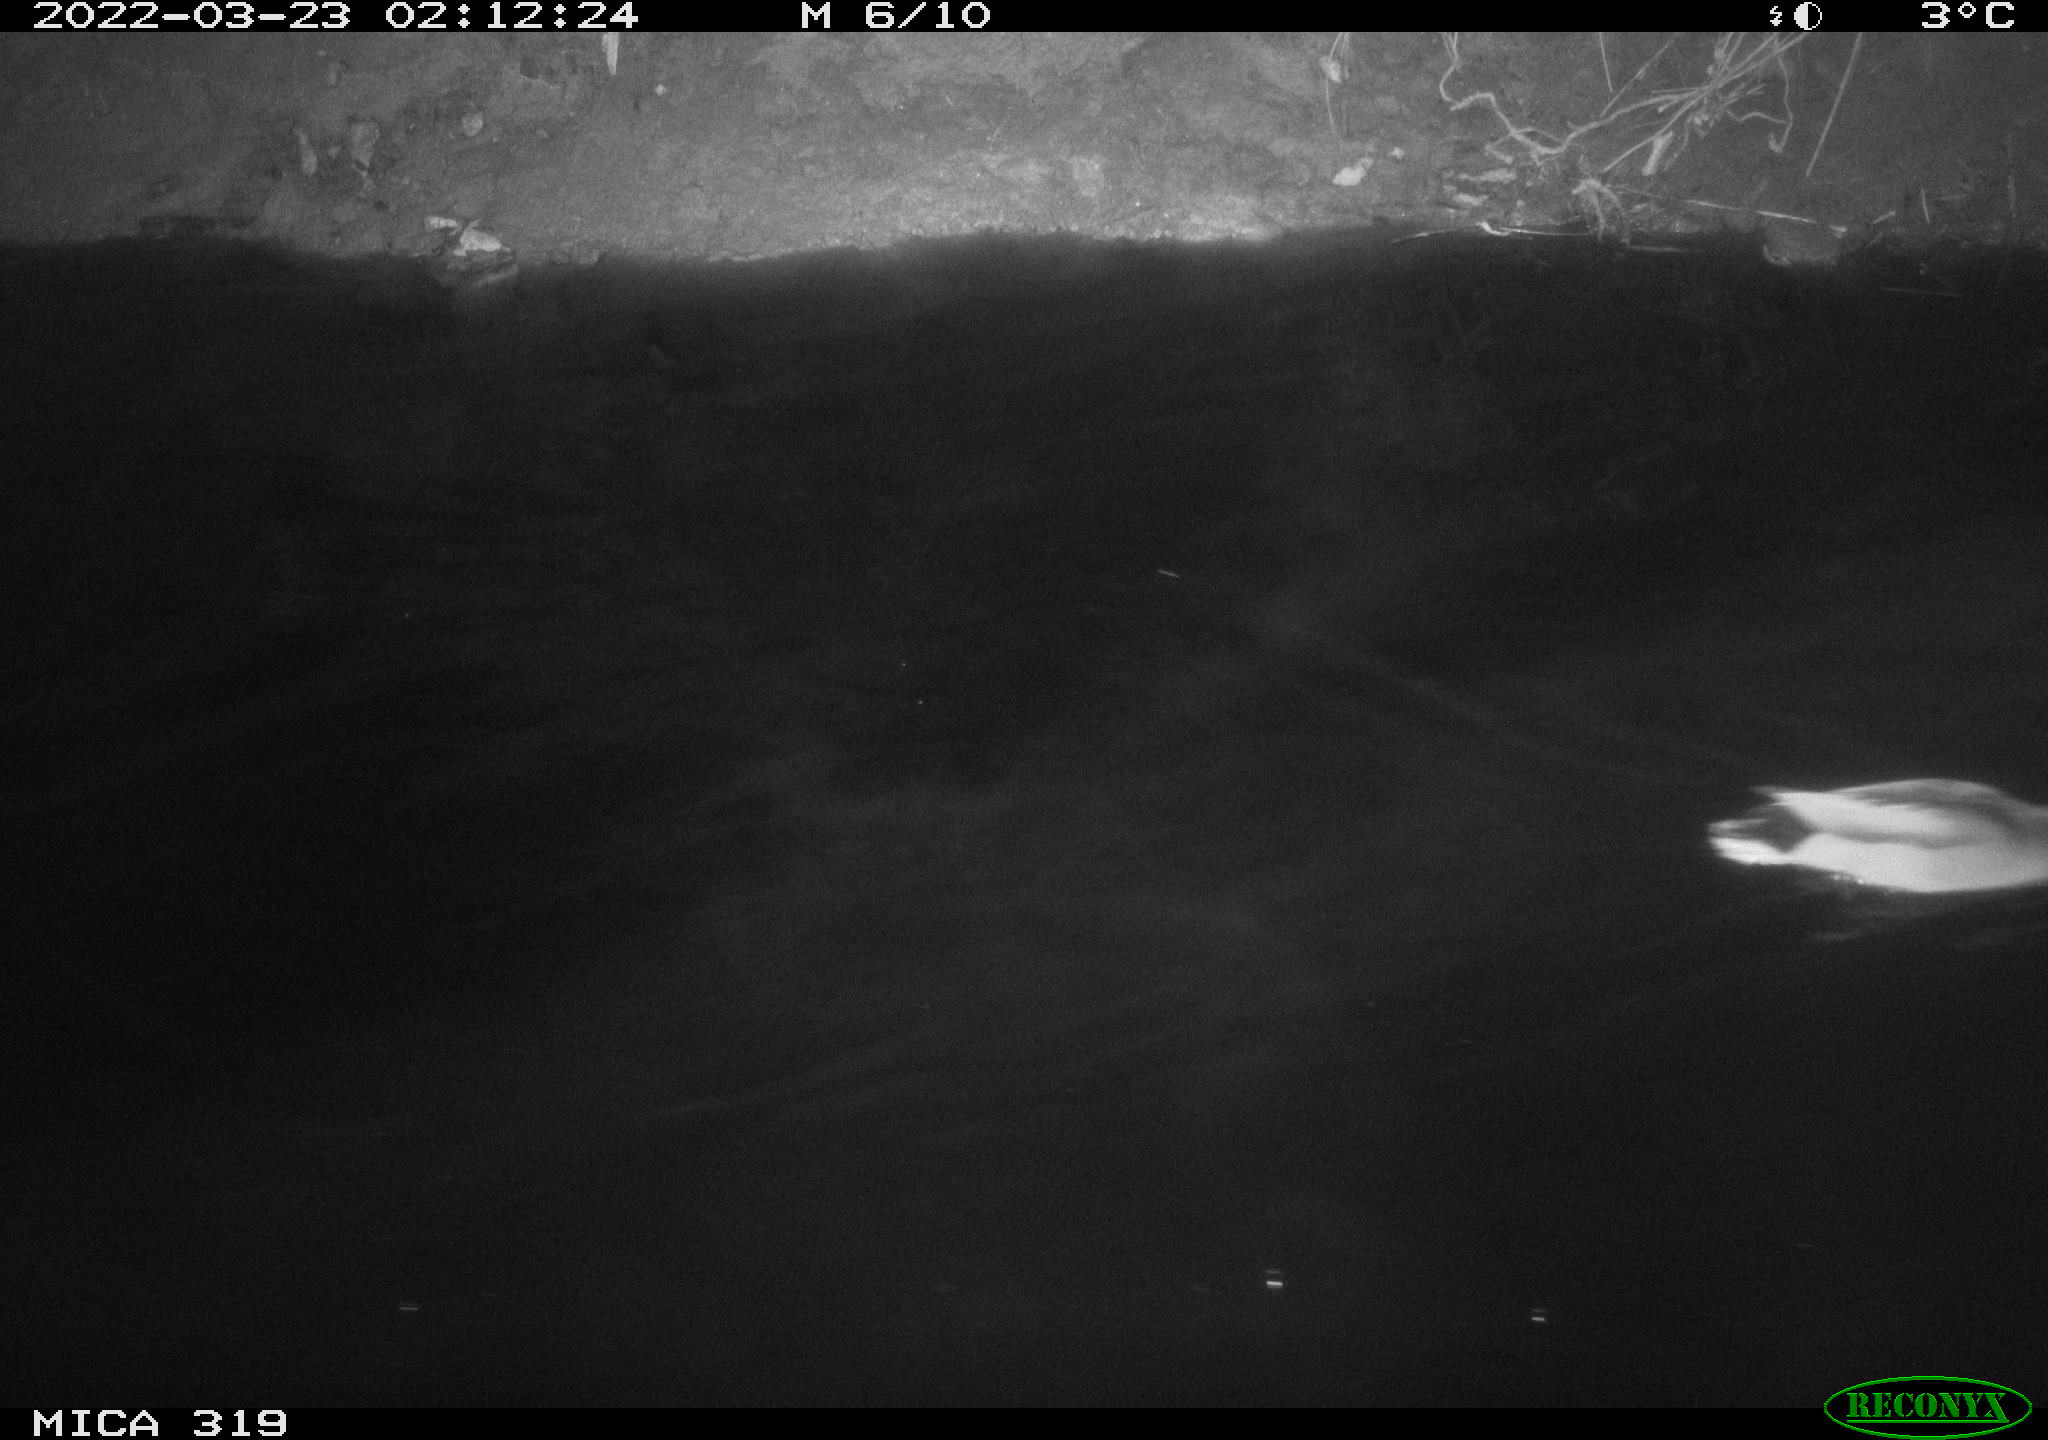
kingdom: Animalia
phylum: Chordata
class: Aves
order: Anseriformes
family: Anatidae
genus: Anas
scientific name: Anas platyrhynchos
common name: Mallard
